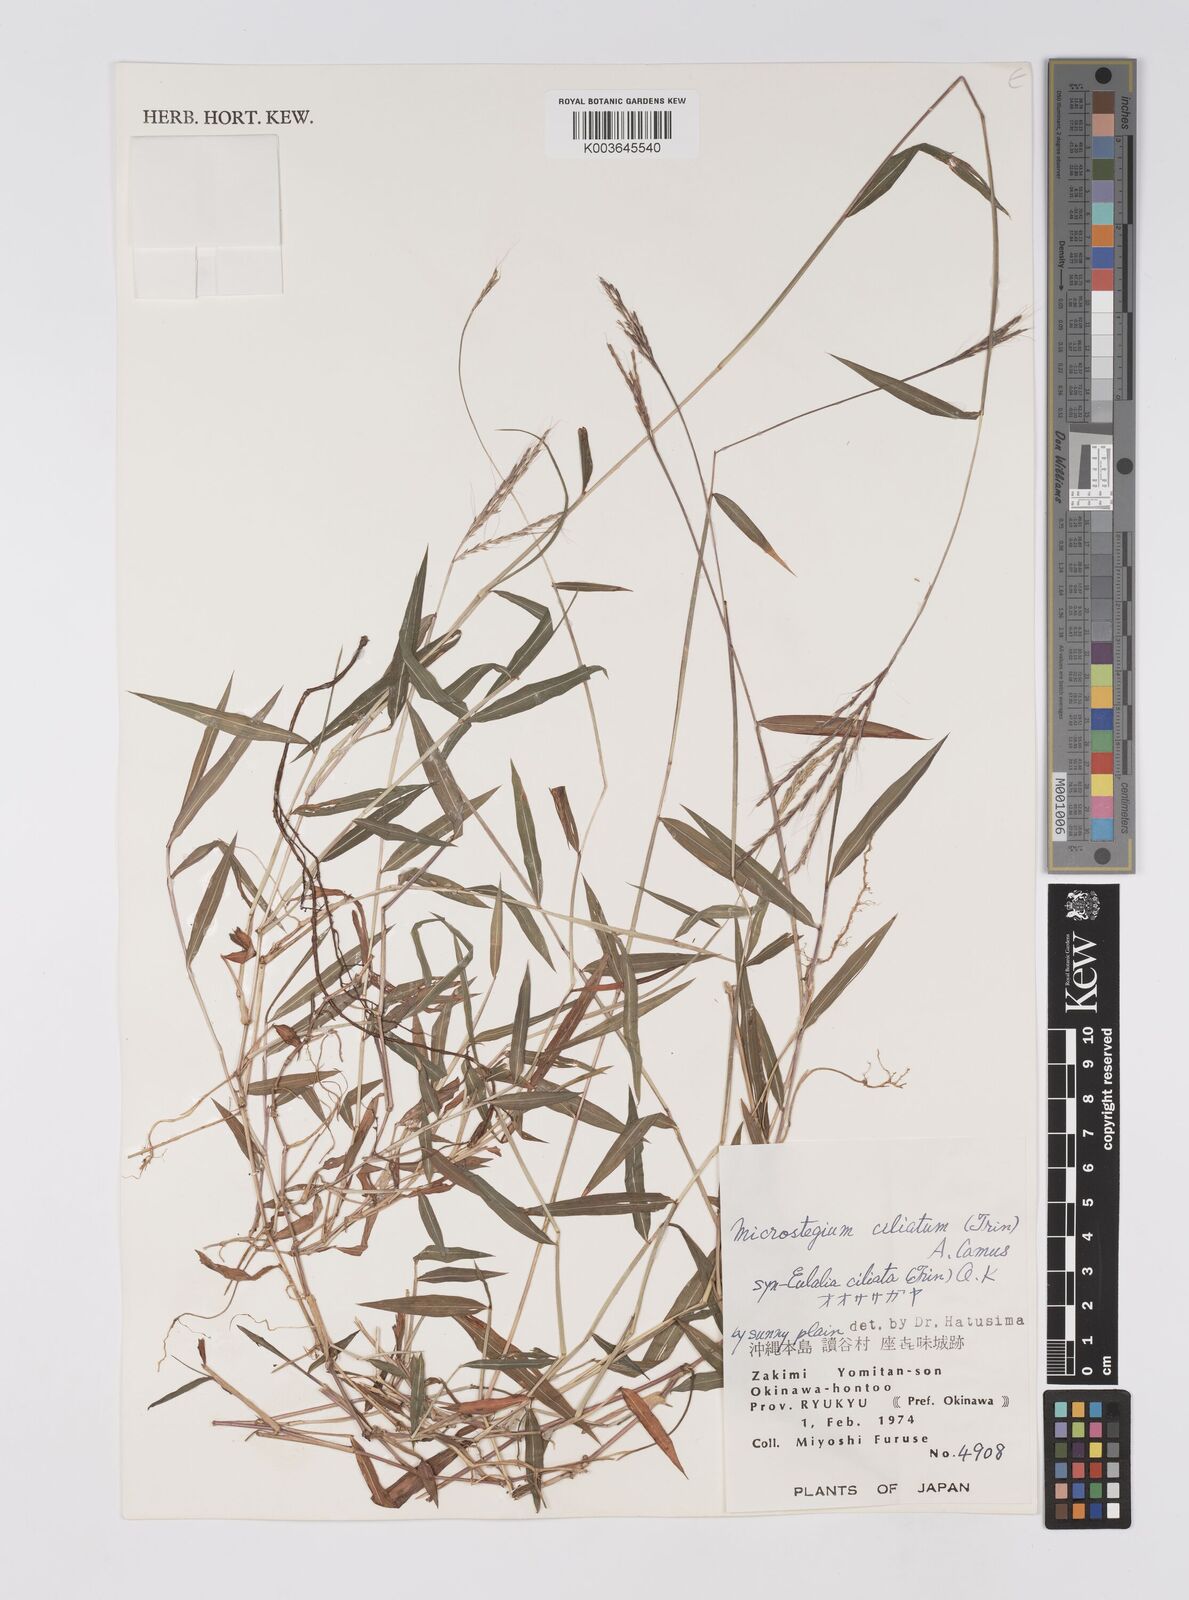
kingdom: Plantae
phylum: Tracheophyta
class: Liliopsida
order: Poales
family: Poaceae
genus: Microstegium
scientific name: Microstegium fasciculatum
